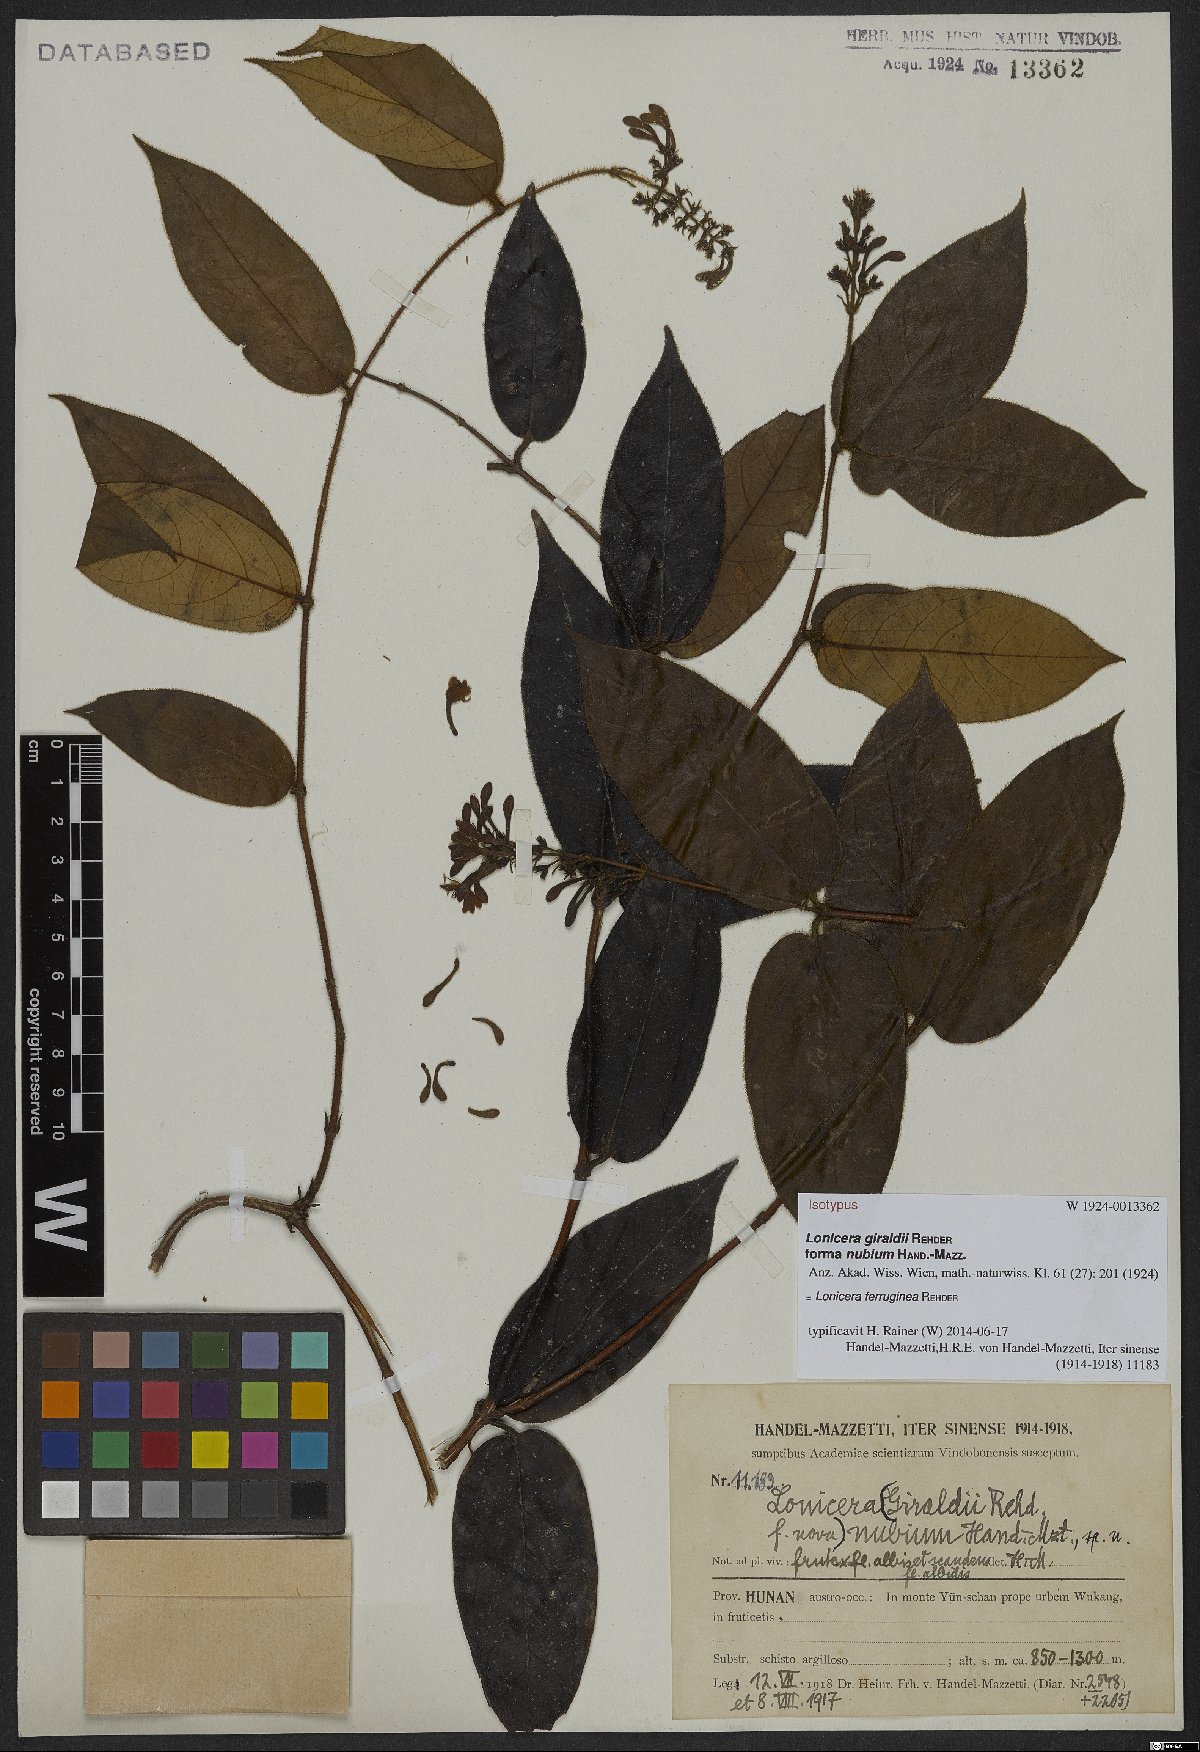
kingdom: Plantae
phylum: Tracheophyta
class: Magnoliopsida
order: Dipsacales
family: Caprifoliaceae
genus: Lonicera
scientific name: Lonicera ferruginea
